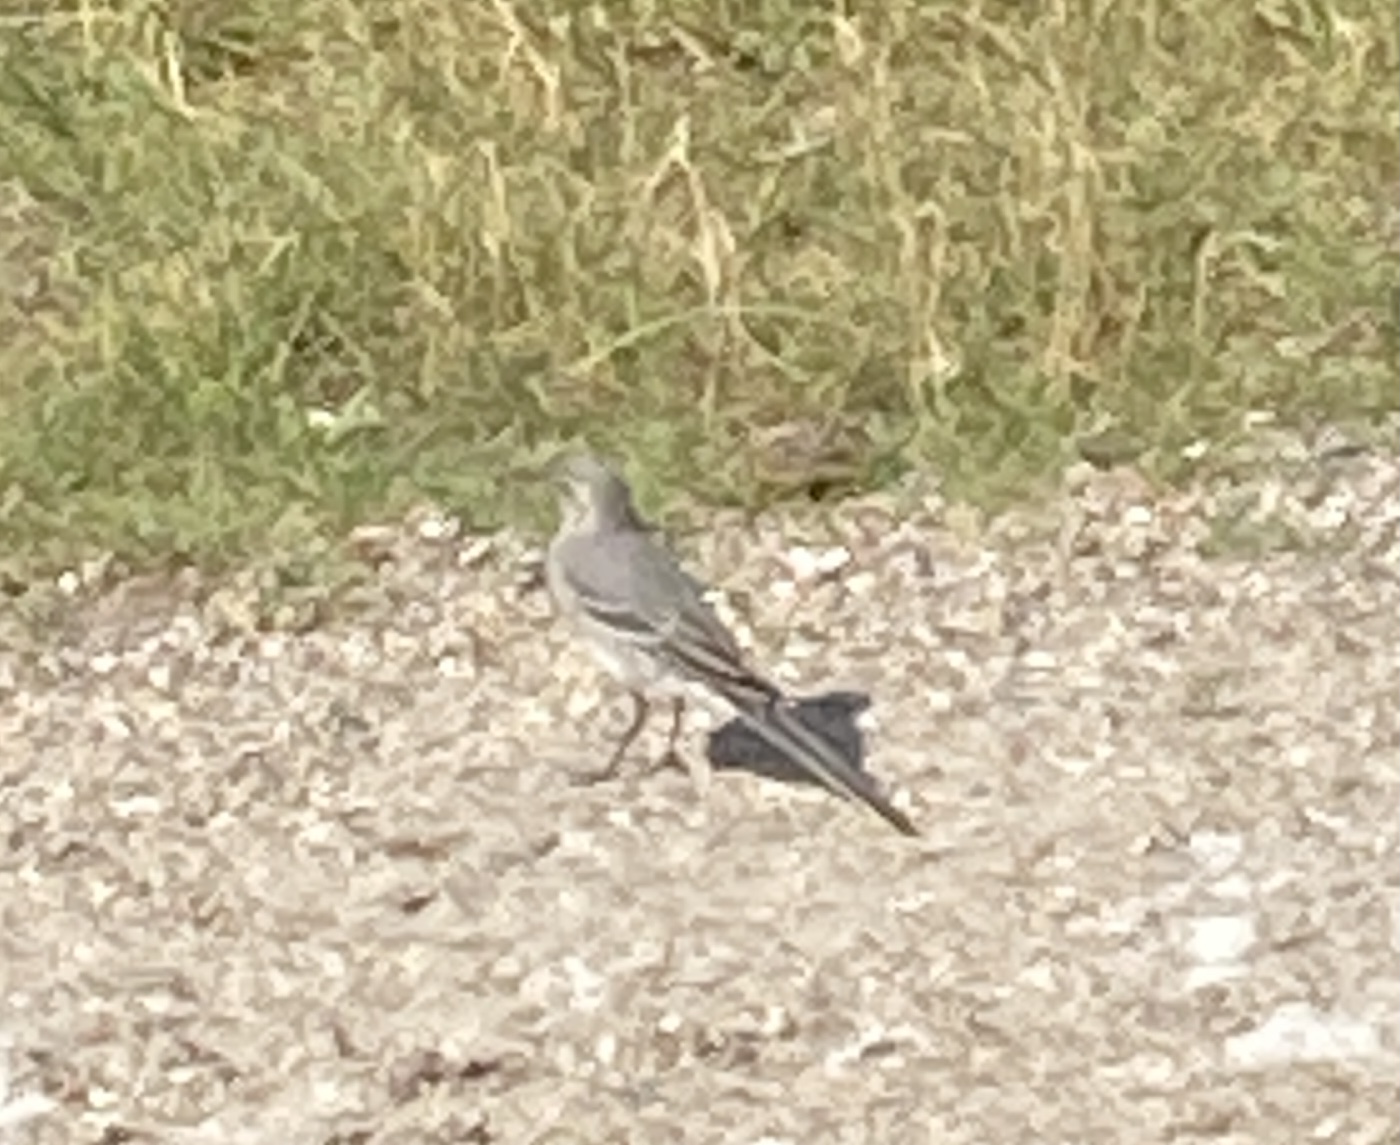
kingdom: Animalia
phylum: Chordata
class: Aves
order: Passeriformes
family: Motacillidae
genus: Motacilla
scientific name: Motacilla alba
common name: Hvid vipstjert
